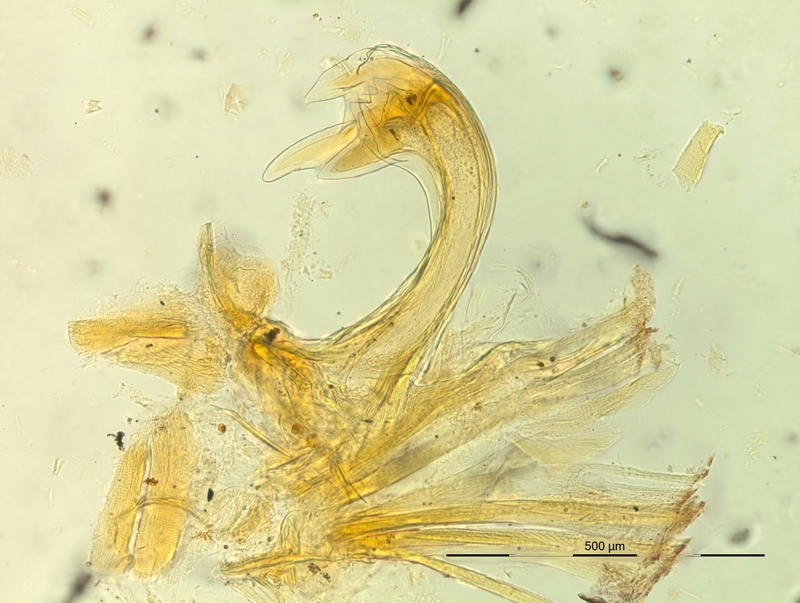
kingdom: Animalia
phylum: Arthropoda
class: Diplopoda
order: Chordeumatida
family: Craspedosomatidae
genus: Pyrgocyphosoma
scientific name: Pyrgocyphosoma longilamellatum
